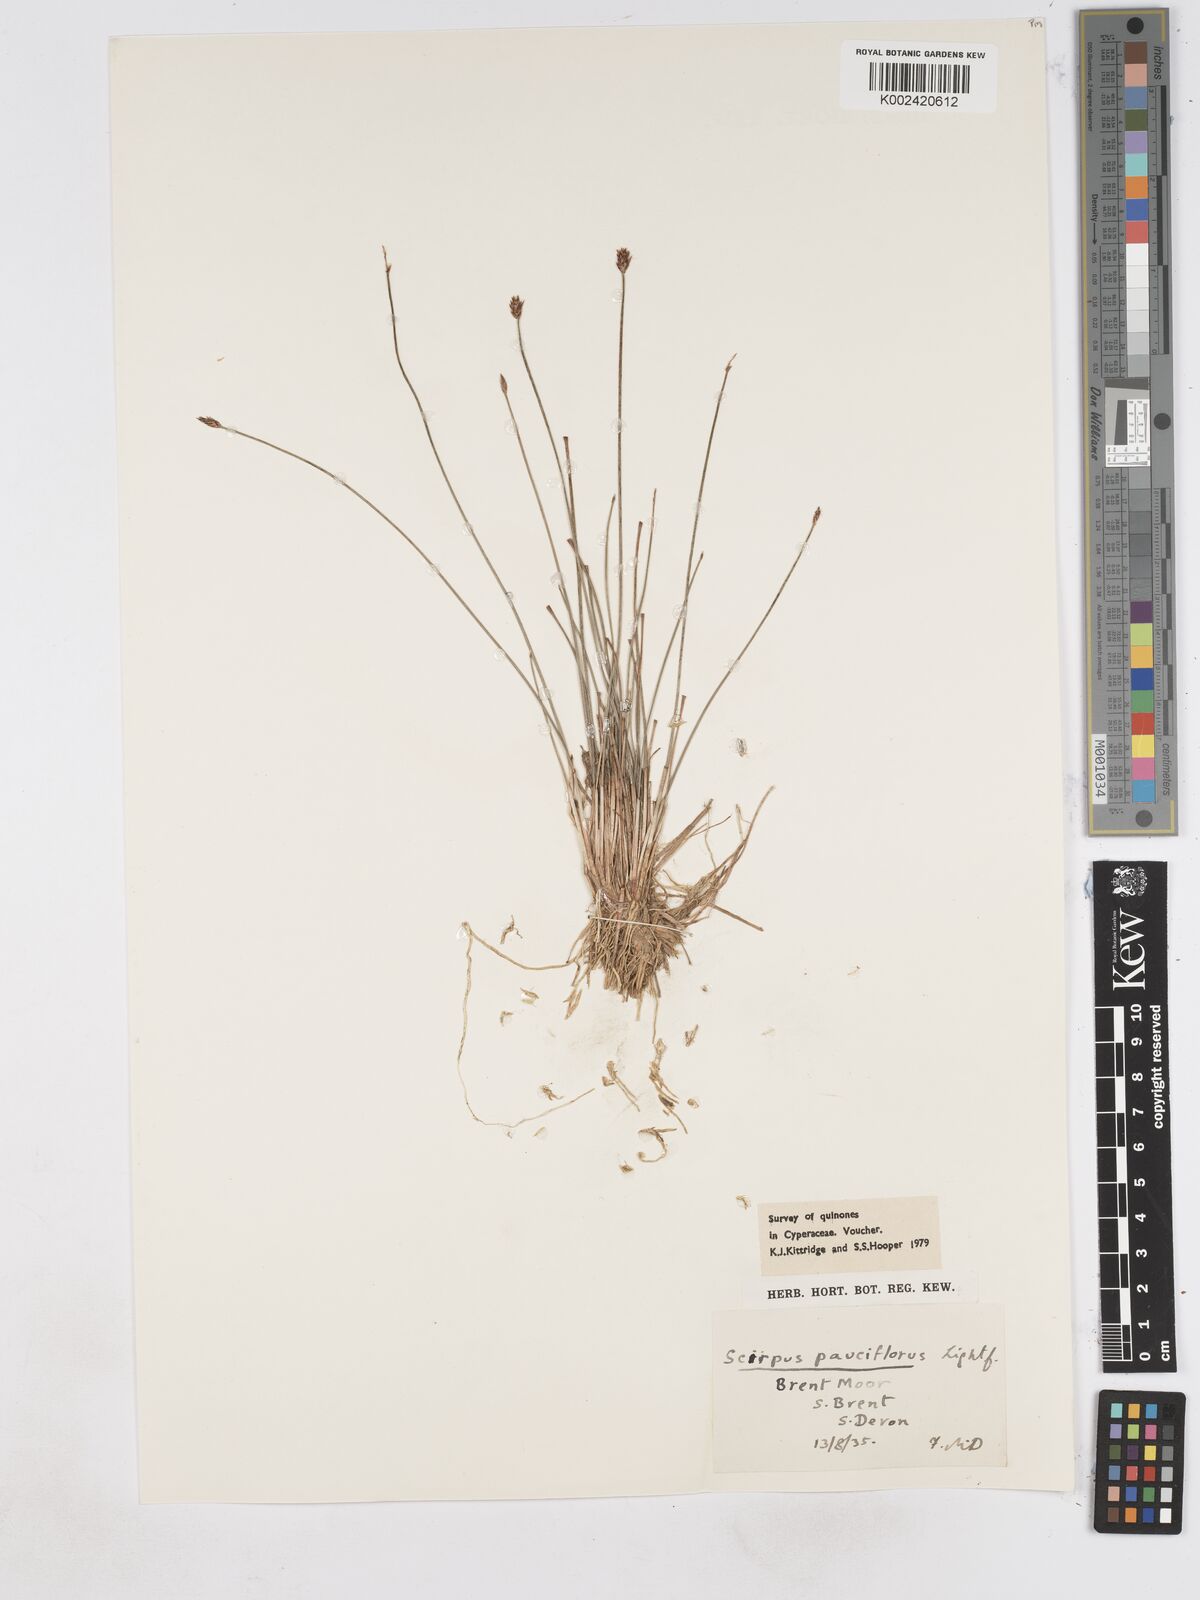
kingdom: Plantae
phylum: Tracheophyta
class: Liliopsida
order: Poales
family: Cyperaceae
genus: Eleocharis
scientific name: Eleocharis quinqueflora
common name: Few-flowered spike-rush
